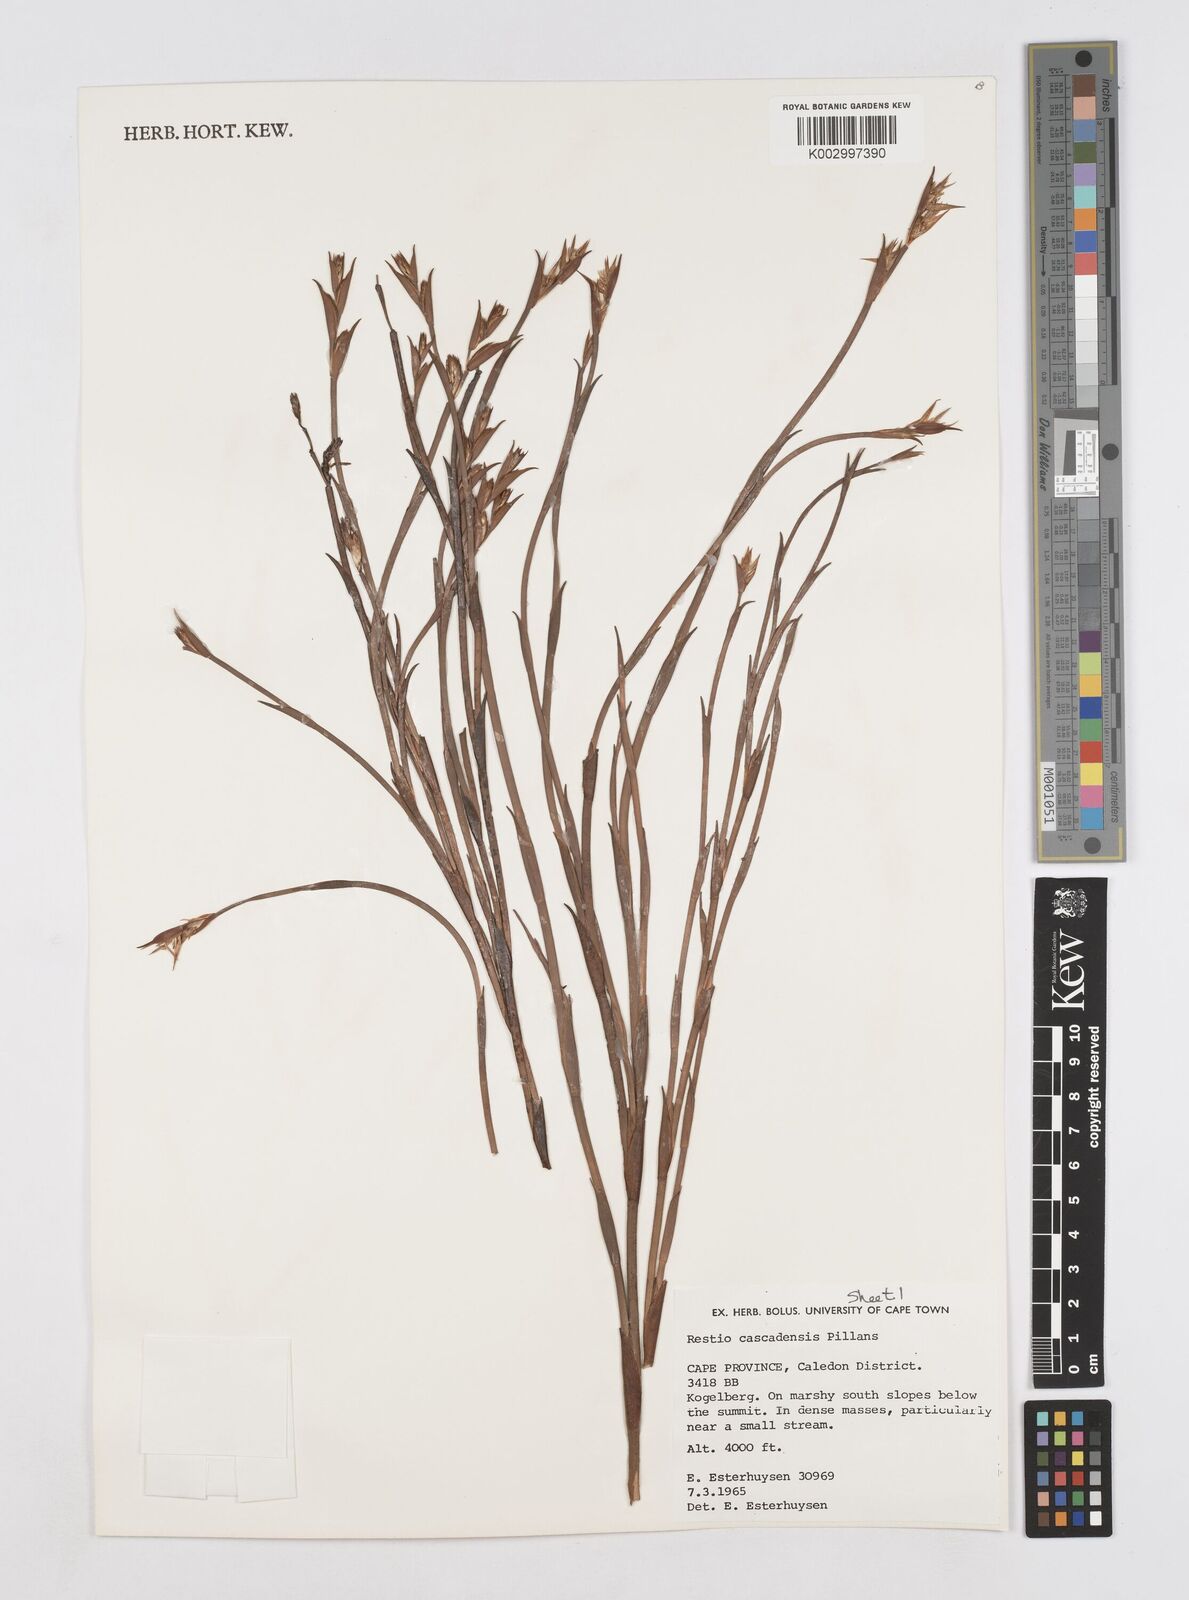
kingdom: Plantae
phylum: Tracheophyta
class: Liliopsida
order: Poales
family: Restionaceae
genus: Platycaulos
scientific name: Platycaulos cascadensis
